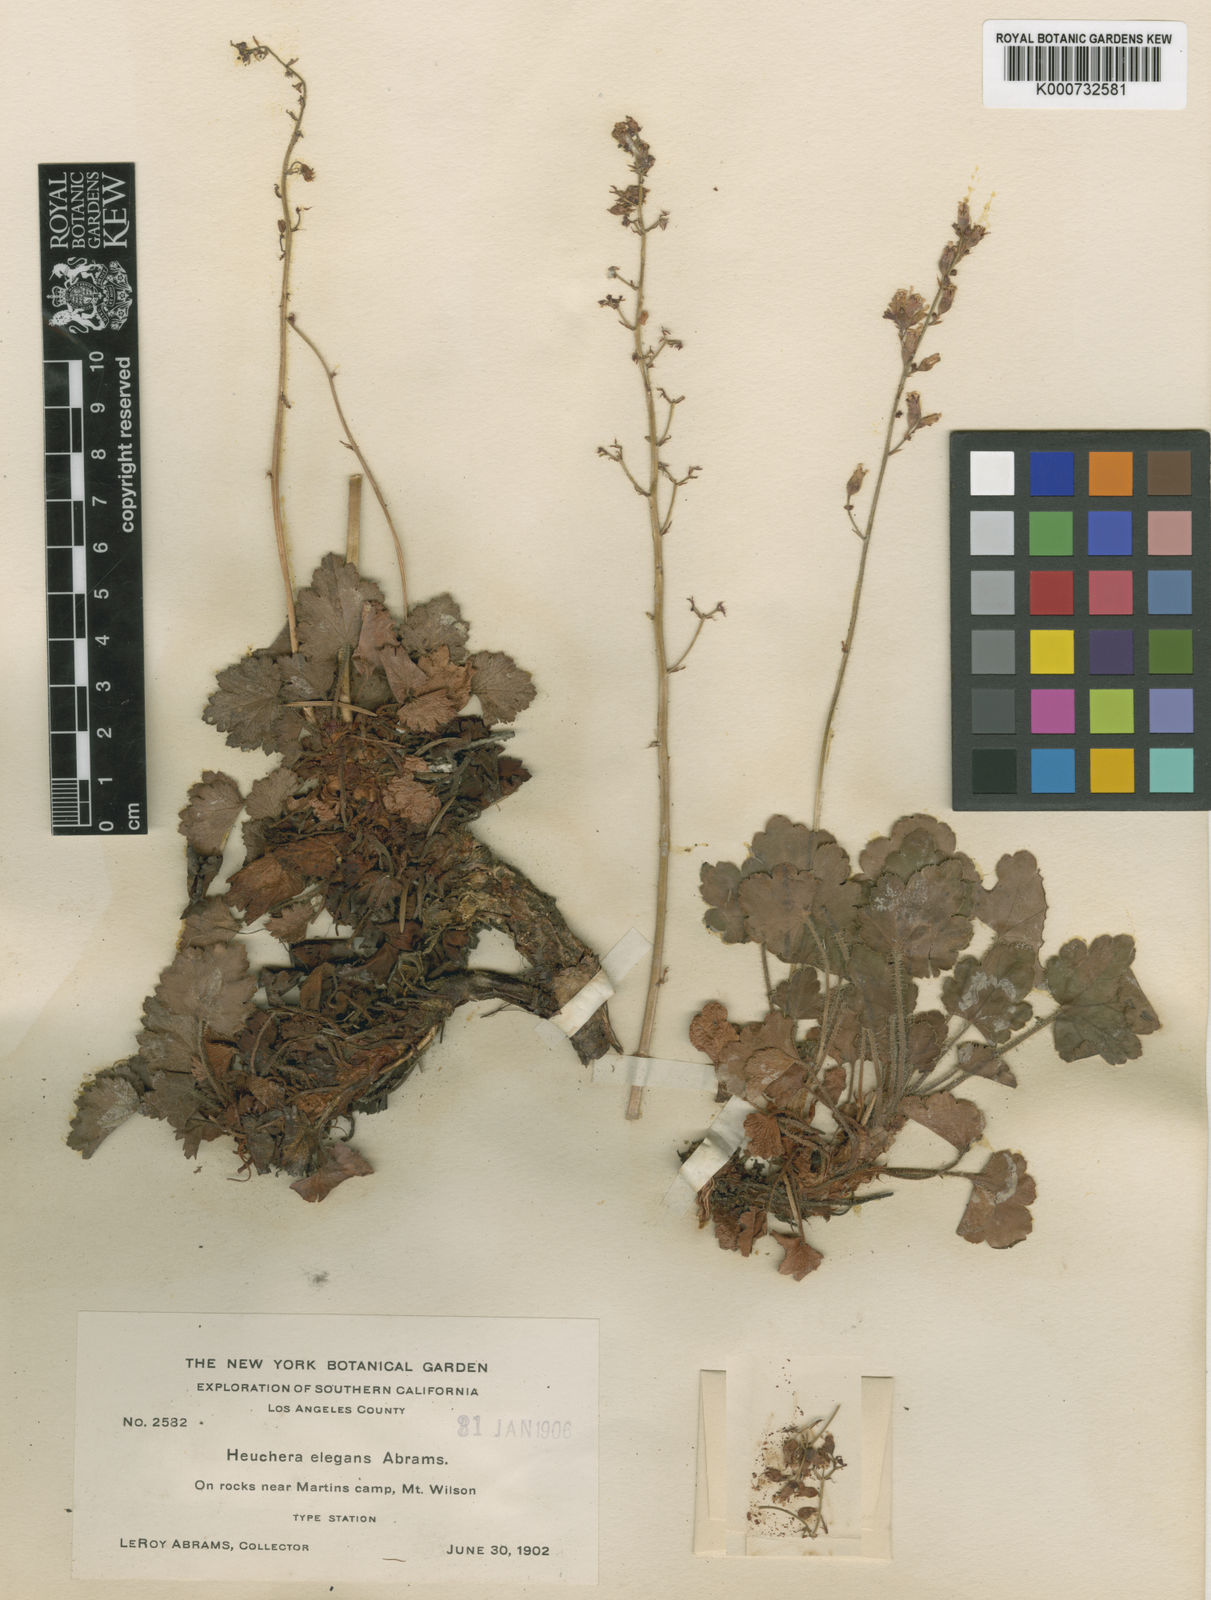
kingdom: Plantae
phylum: Tracheophyta
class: Magnoliopsida
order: Saxifragales
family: Saxifragaceae
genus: Heuchera
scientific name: Heuchera elegans
